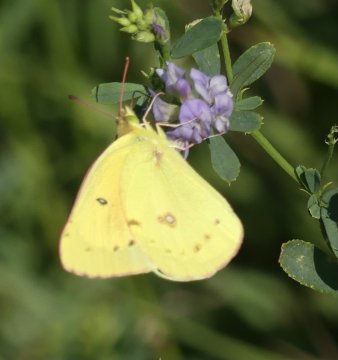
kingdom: Animalia
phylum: Arthropoda
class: Insecta
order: Lepidoptera
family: Pieridae
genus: Colias
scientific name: Colias eurytheme
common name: Orange Sulphur
